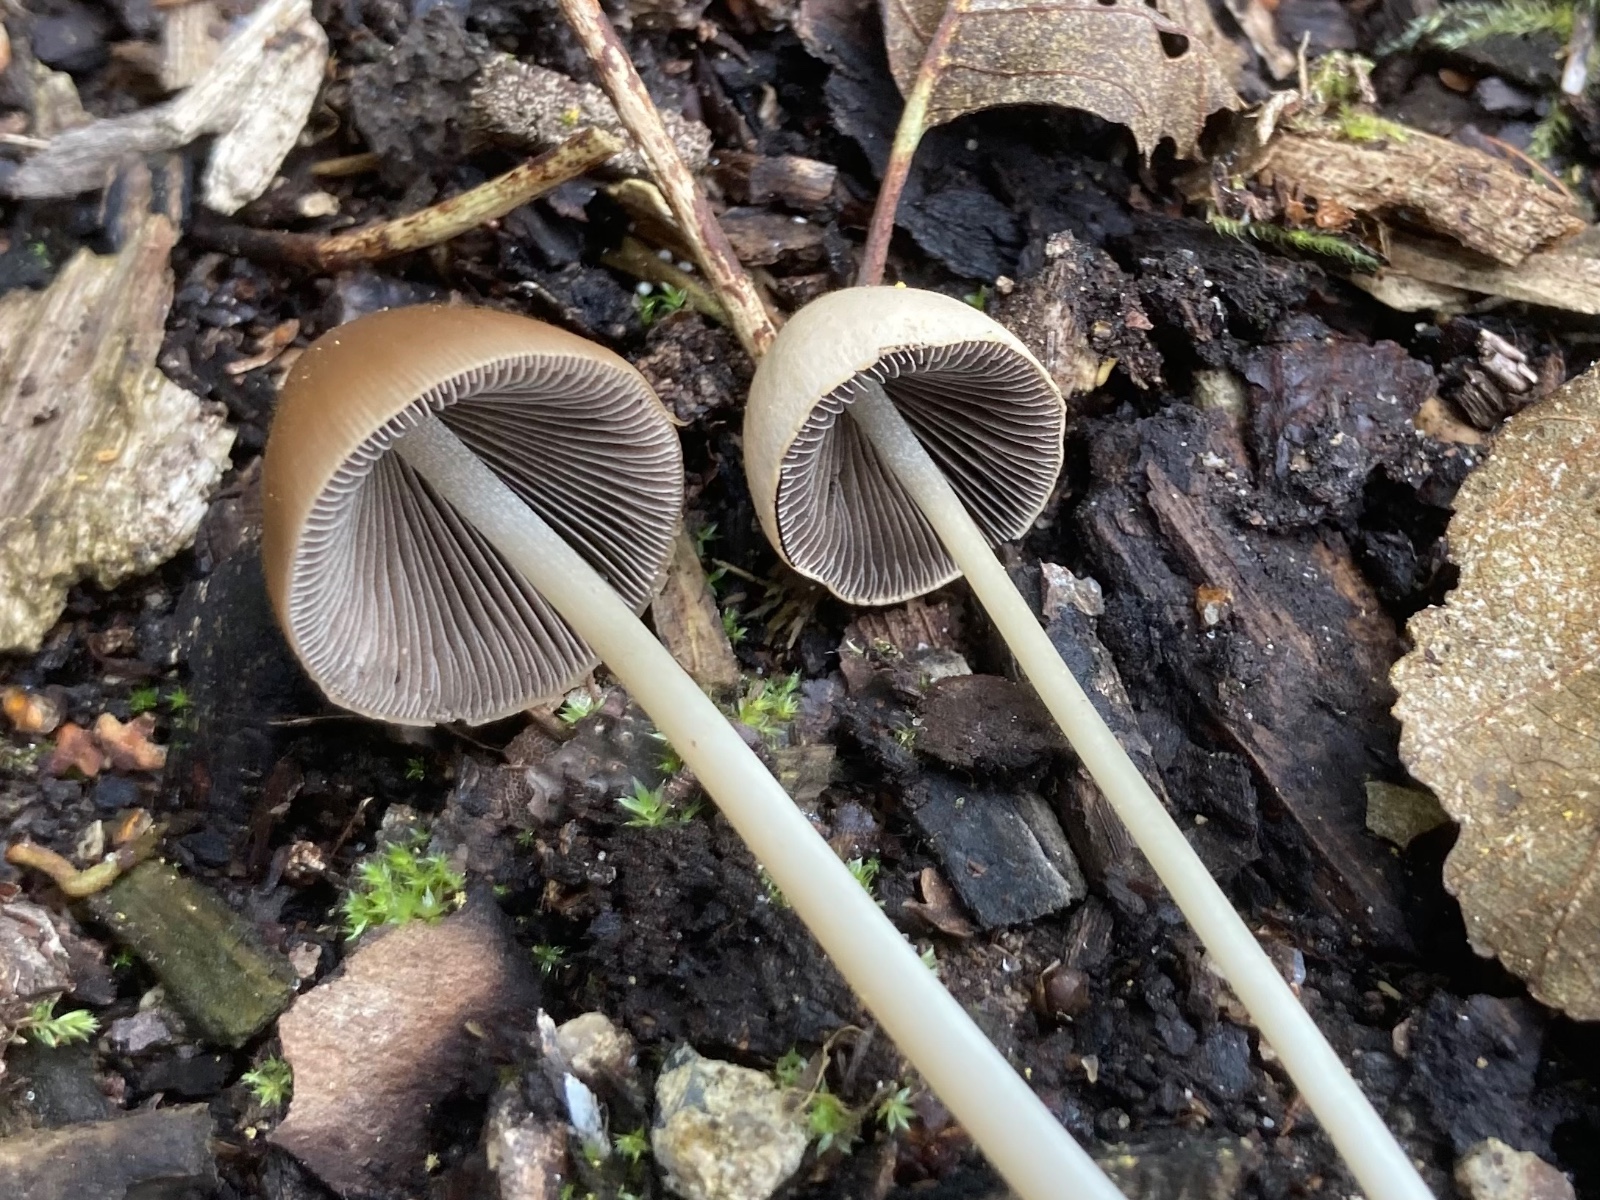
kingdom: Fungi
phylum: Basidiomycota
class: Agaricomycetes
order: Agaricales
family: Psathyrellaceae
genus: Parasola
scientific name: Parasola conopilea
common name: kegle-hjulhat
